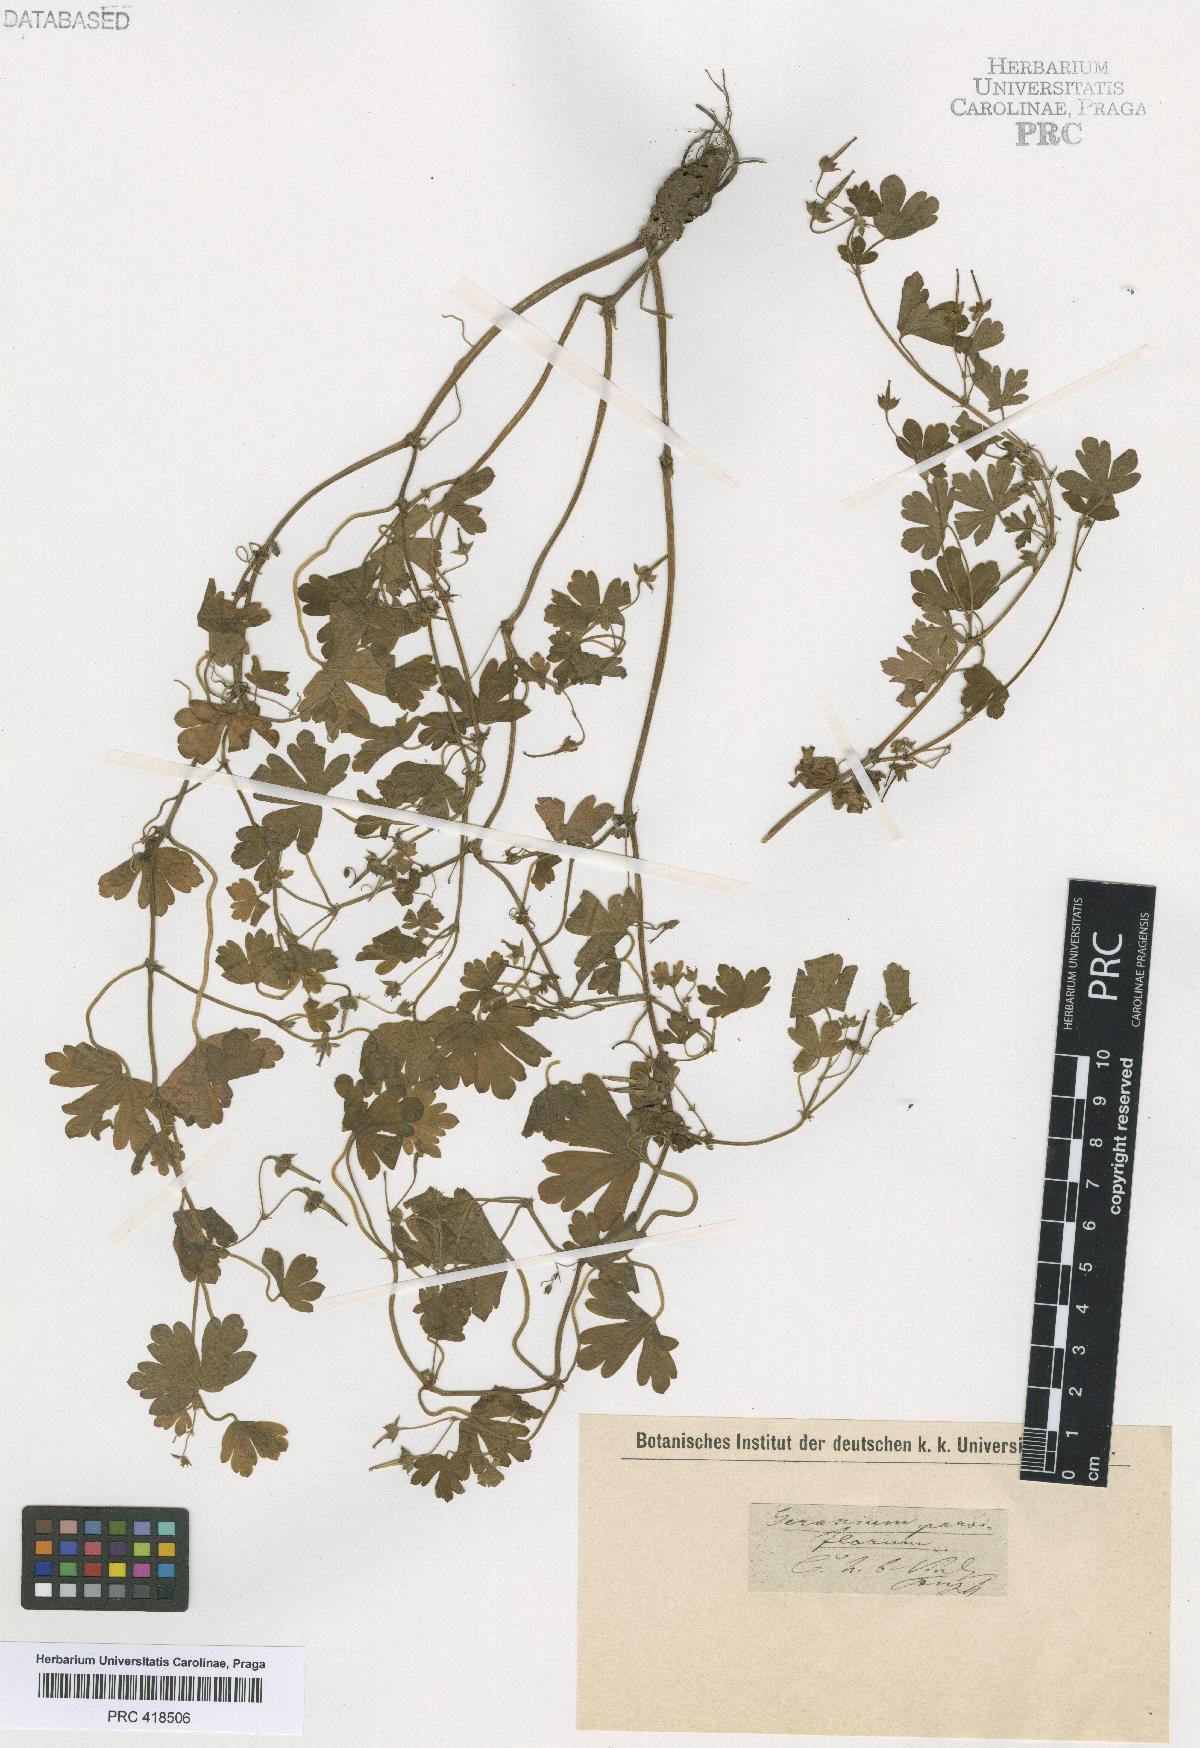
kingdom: Plantae
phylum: Tracheophyta
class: Magnoliopsida
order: Geraniales
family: Geraniaceae
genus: Geranium
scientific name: Geranium nepalense
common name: Nepalese crane's-bill
